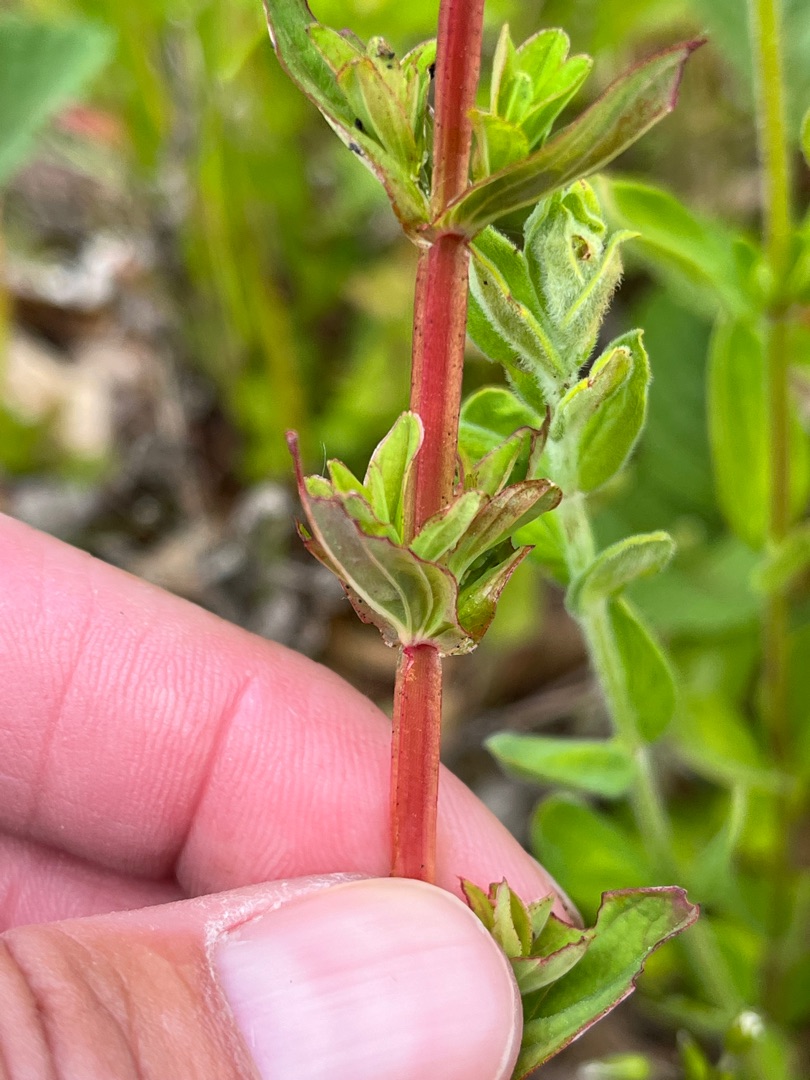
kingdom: Plantae
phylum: Tracheophyta
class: Magnoliopsida
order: Malpighiales
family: Hypericaceae
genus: Hypericum
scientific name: Hypericum tetrapterum
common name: Vinget perikon
